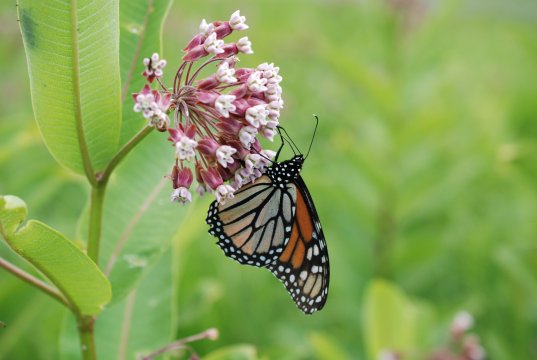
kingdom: Animalia
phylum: Arthropoda
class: Insecta
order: Lepidoptera
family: Nymphalidae
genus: Danaus
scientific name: Danaus plexippus
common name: Monarch
